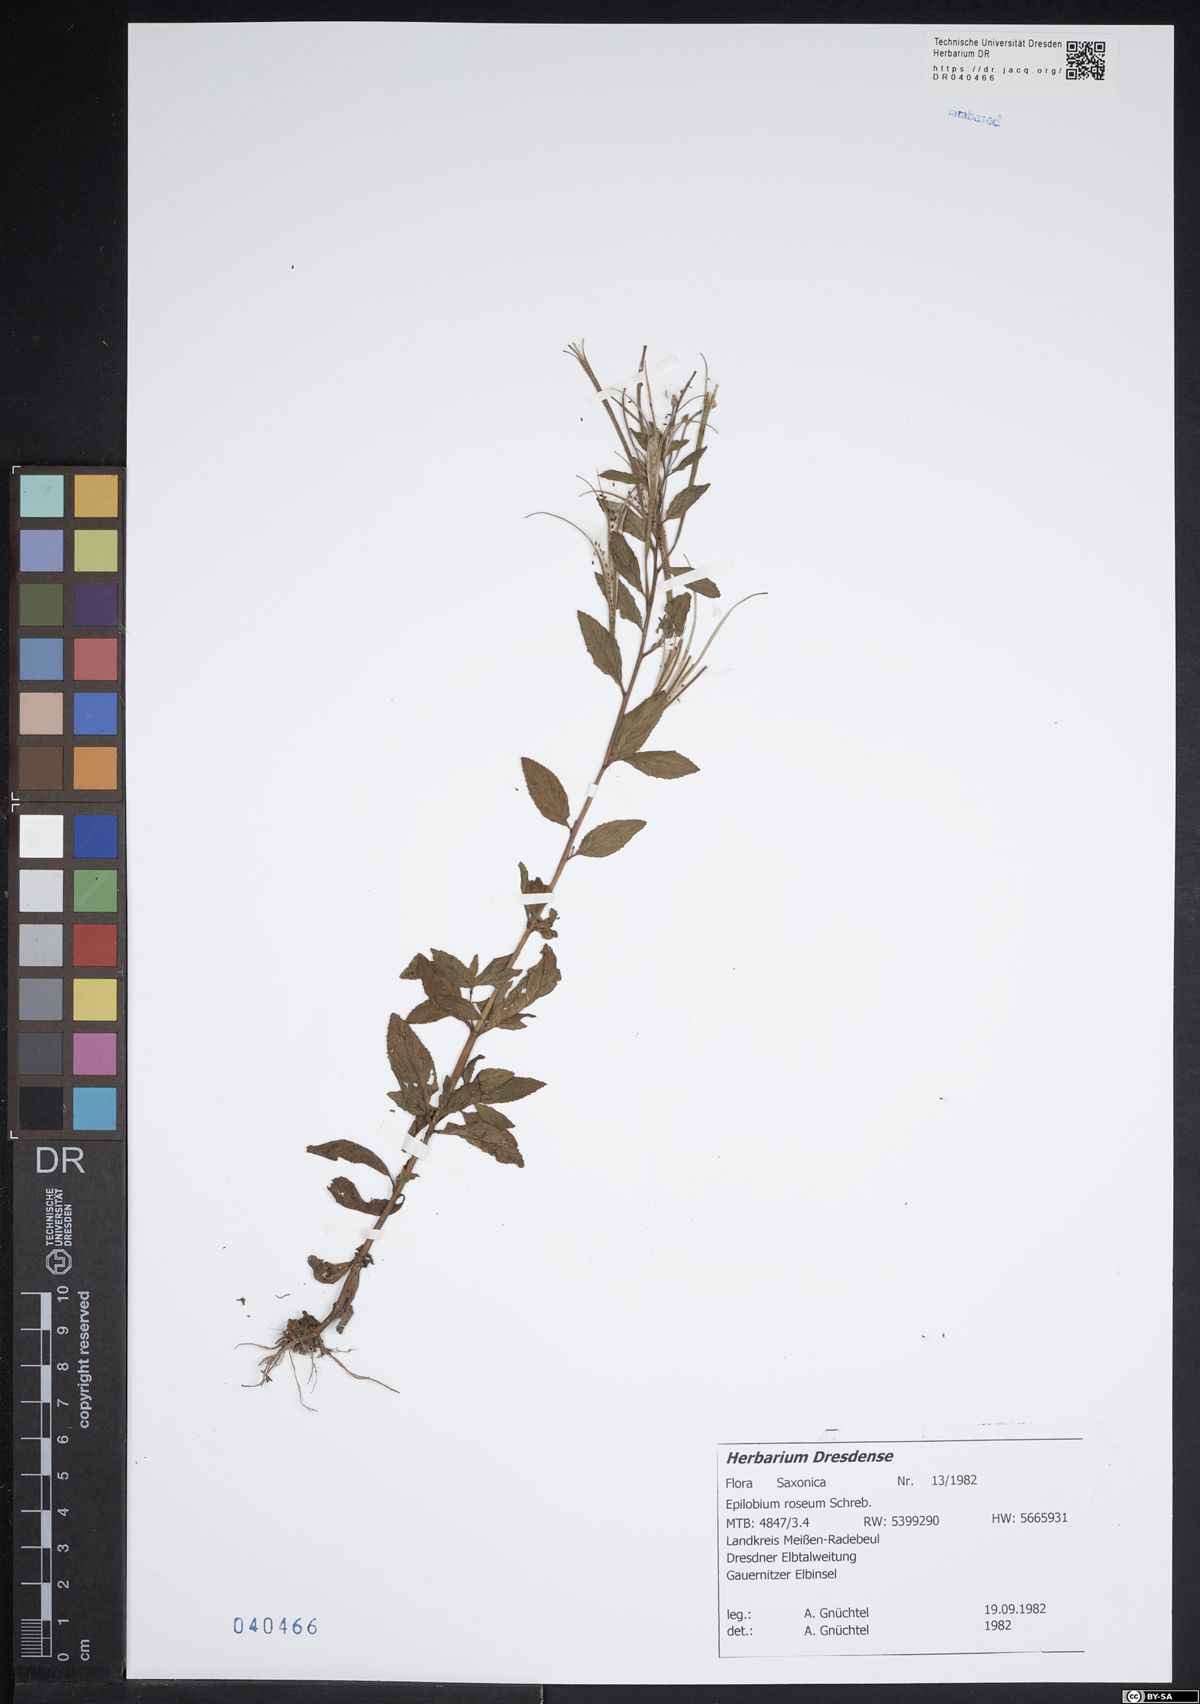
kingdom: Plantae
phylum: Tracheophyta
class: Magnoliopsida
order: Myrtales
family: Onagraceae
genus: Epilobium
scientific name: Epilobium roseum
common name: Pale willowherb
